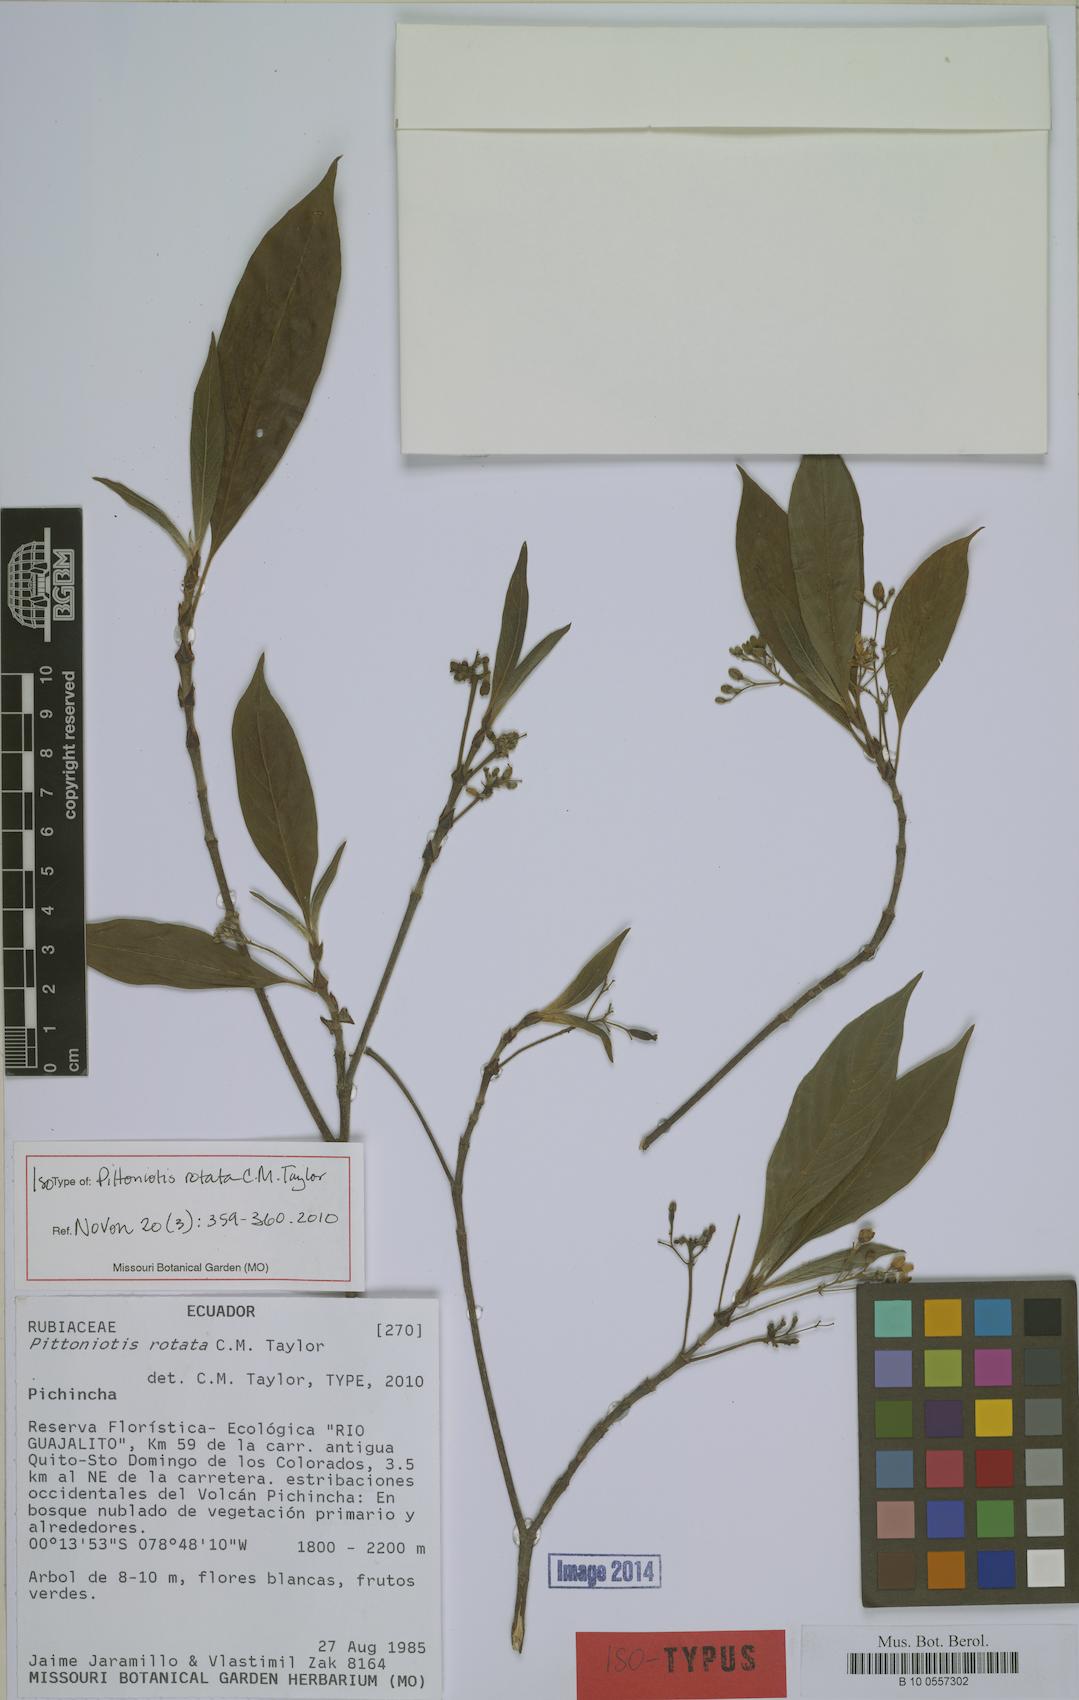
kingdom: Plantae
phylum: Tracheophyta
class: Magnoliopsida
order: Gentianales
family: Rubiaceae
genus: Pittoniotis
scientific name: Pittoniotis rotata
